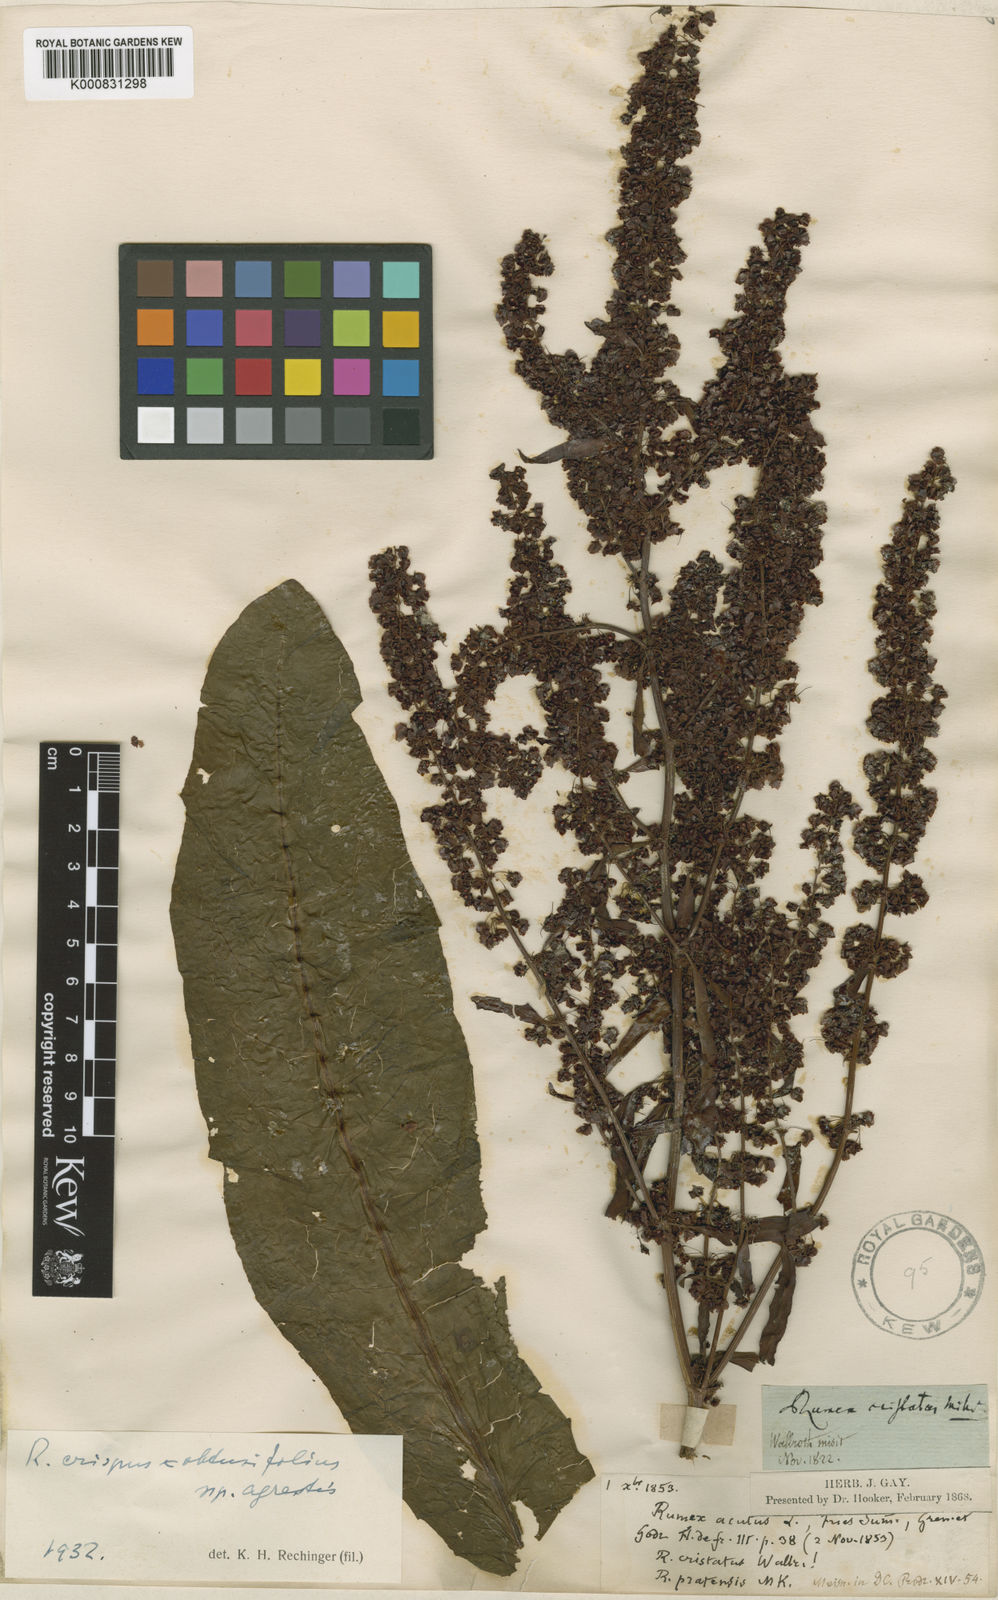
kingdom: Plantae
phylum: Tracheophyta
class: Magnoliopsida
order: Caryophyllales
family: Polygonaceae
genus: Rumex
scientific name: Rumex crispus
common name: Curled dock
